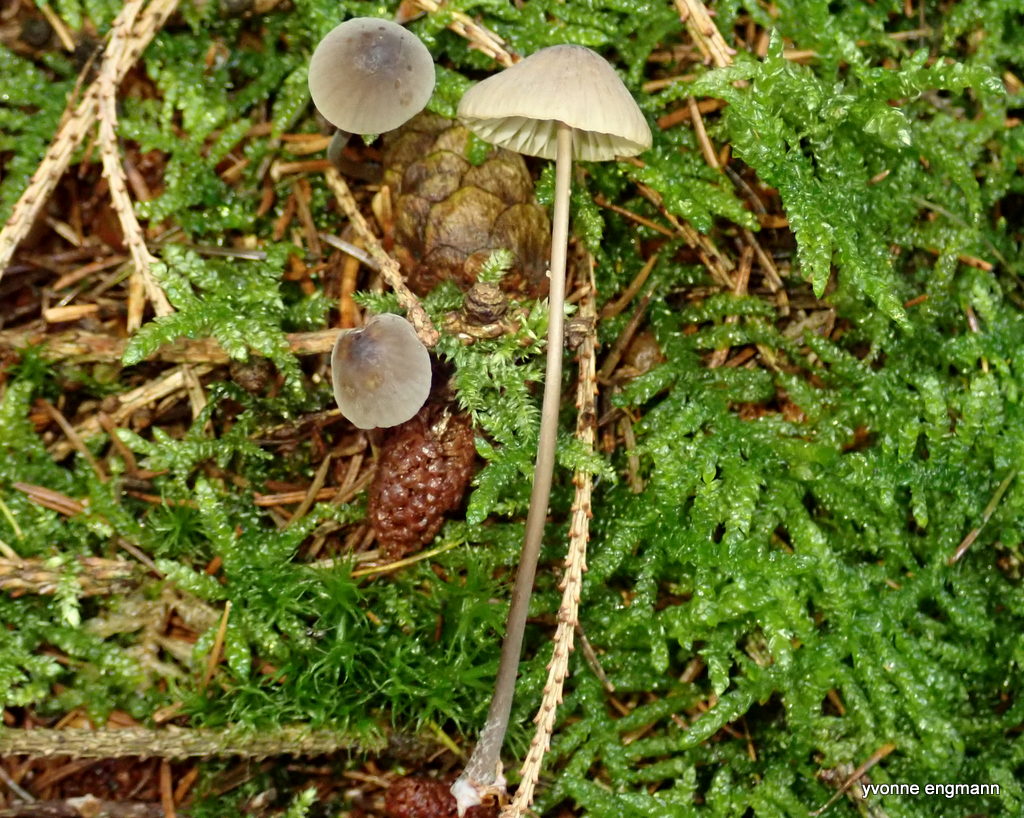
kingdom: Fungi
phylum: Basidiomycota
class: Agaricomycetes
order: Agaricales
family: Mycenaceae
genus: Mycena
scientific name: Mycena galopus
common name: hvidmælket huesvamp
